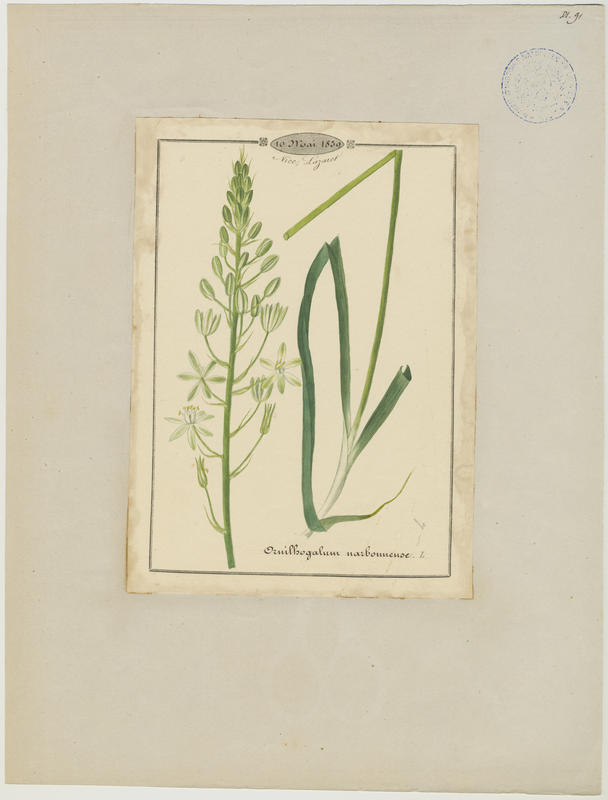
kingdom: Plantae
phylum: Tracheophyta
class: Liliopsida
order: Asparagales
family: Asparagaceae
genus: Ornithogalum
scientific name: Ornithogalum narbonense
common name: Bath-asparagus
